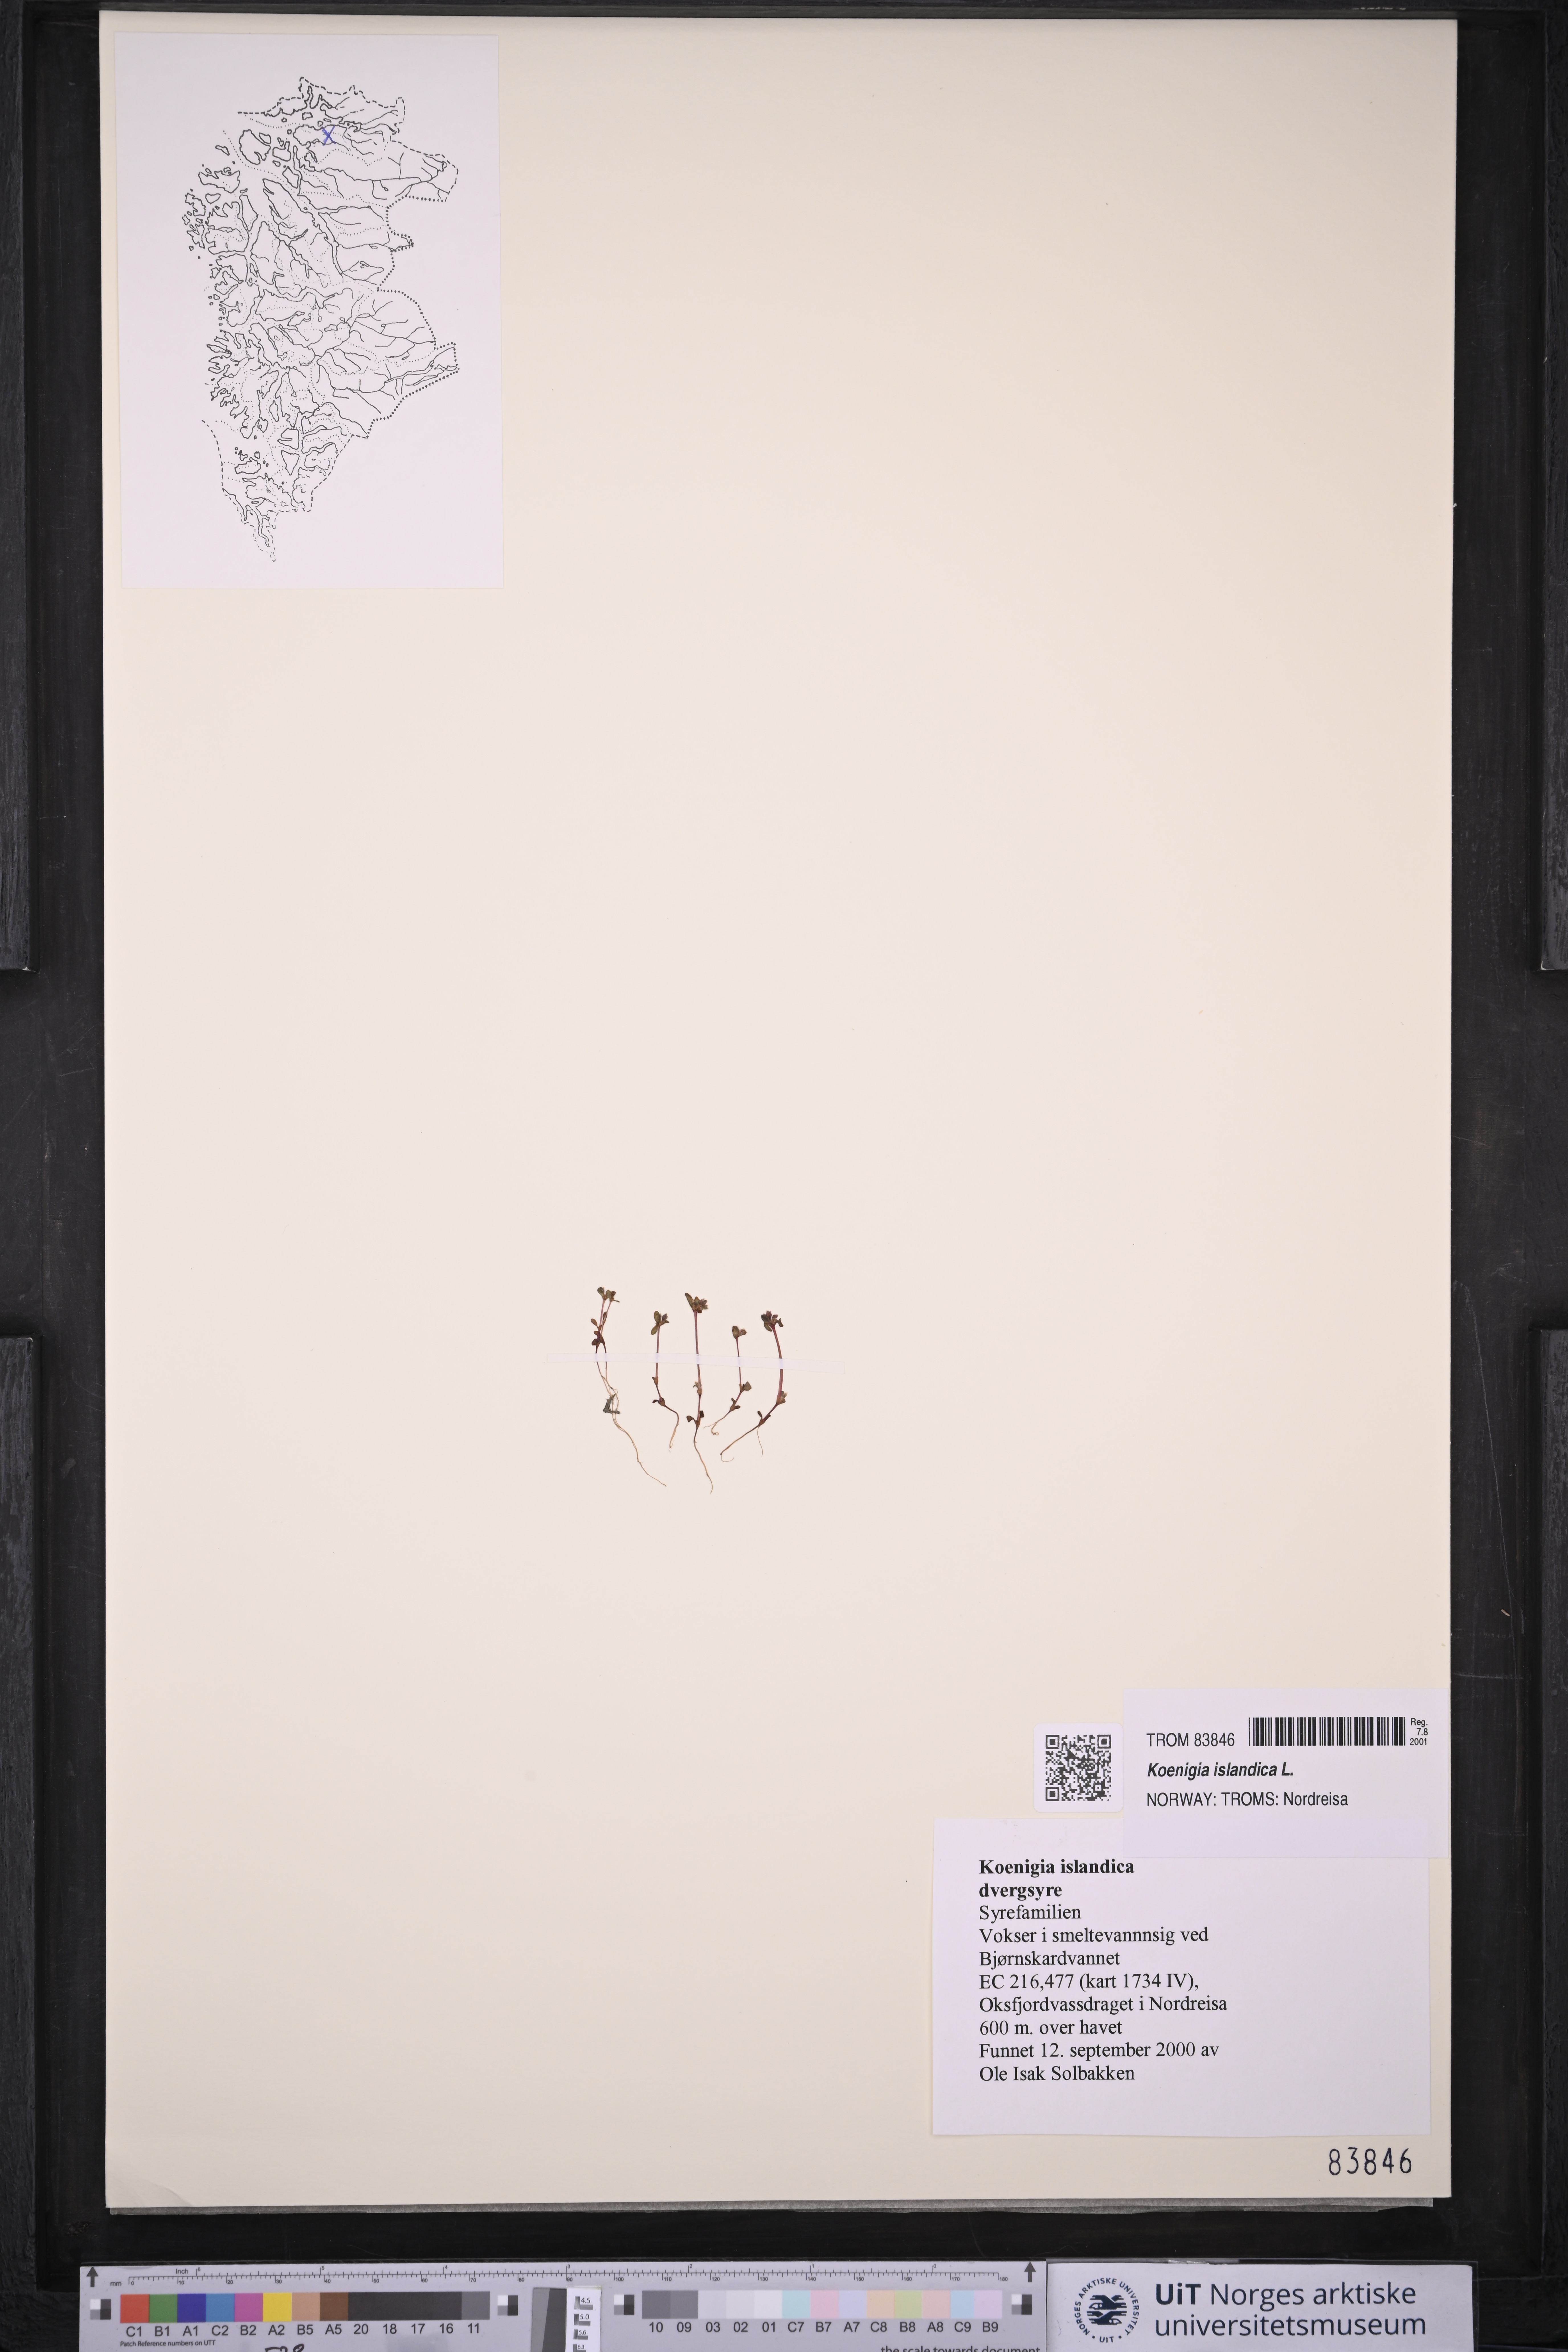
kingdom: Plantae
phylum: Tracheophyta
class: Magnoliopsida
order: Caryophyllales
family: Polygonaceae
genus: Koenigia
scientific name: Koenigia islandica
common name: Iceland-purslane
